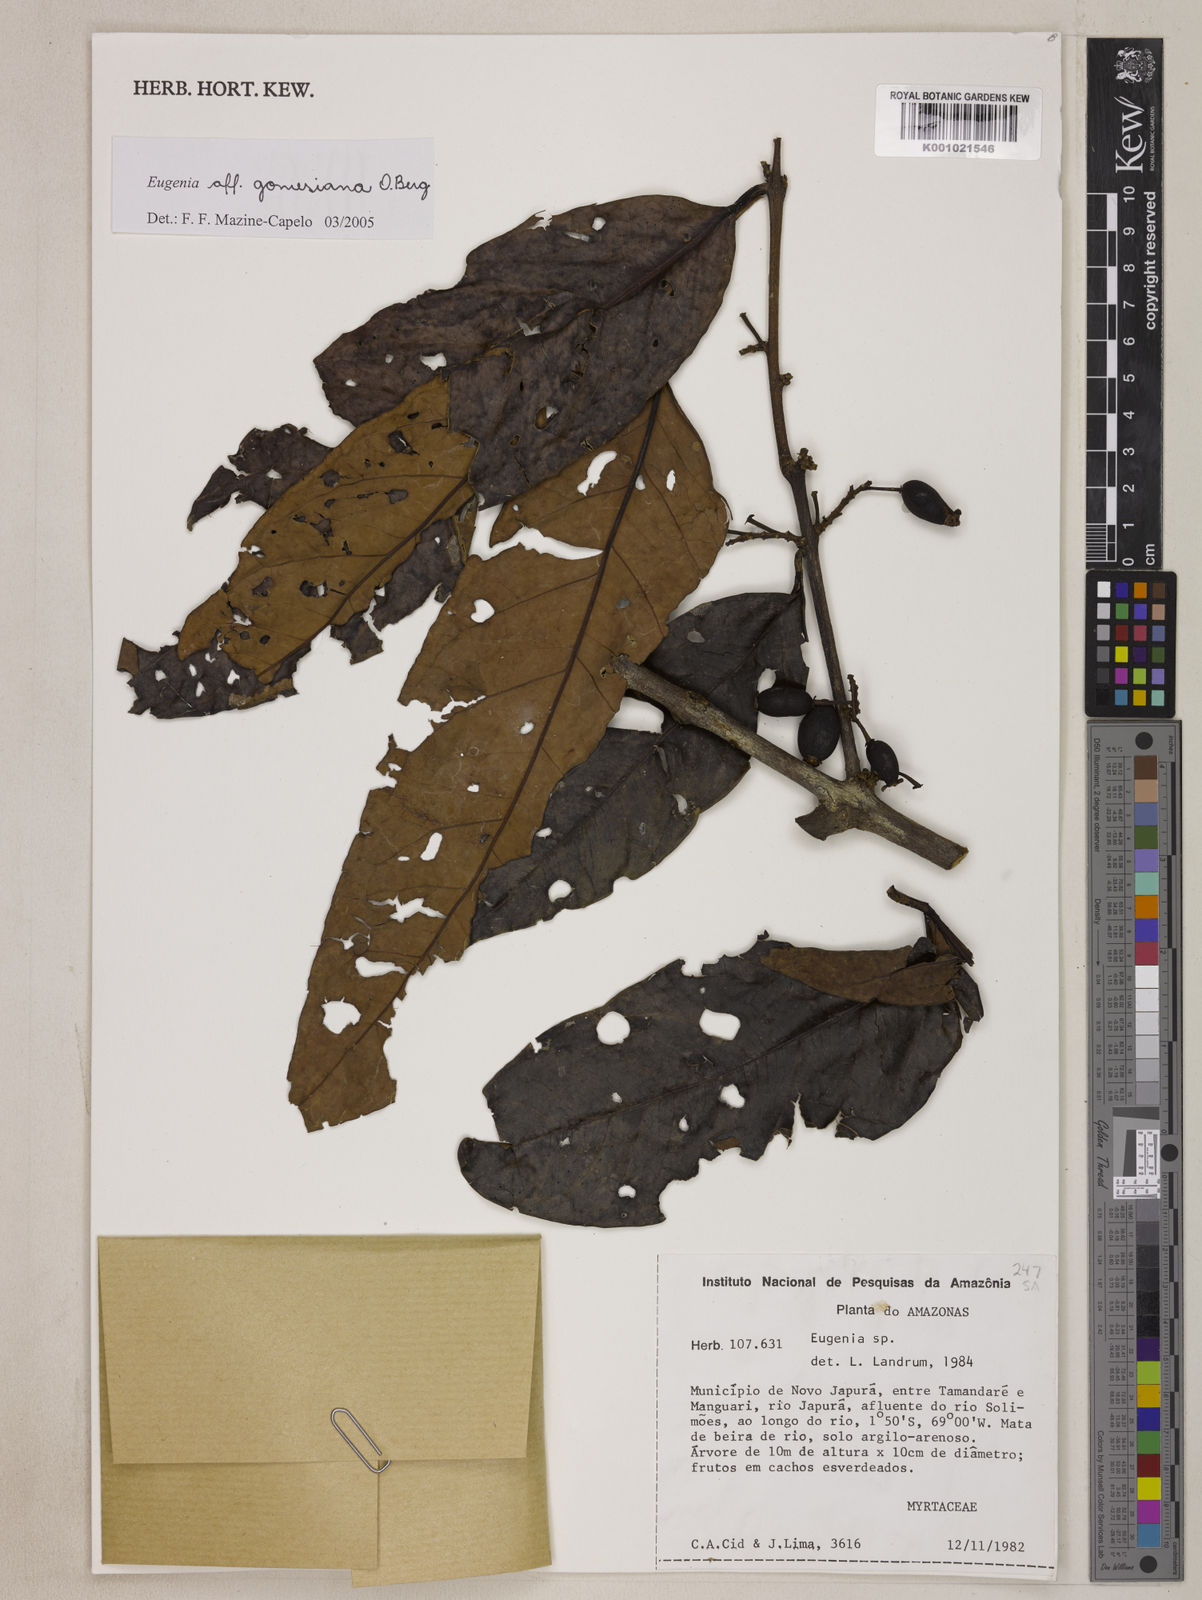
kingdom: Plantae
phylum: Tracheophyta
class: Magnoliopsida
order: Myrtales
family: Myrtaceae
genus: Eugenia
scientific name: Eugenia gomesiana
